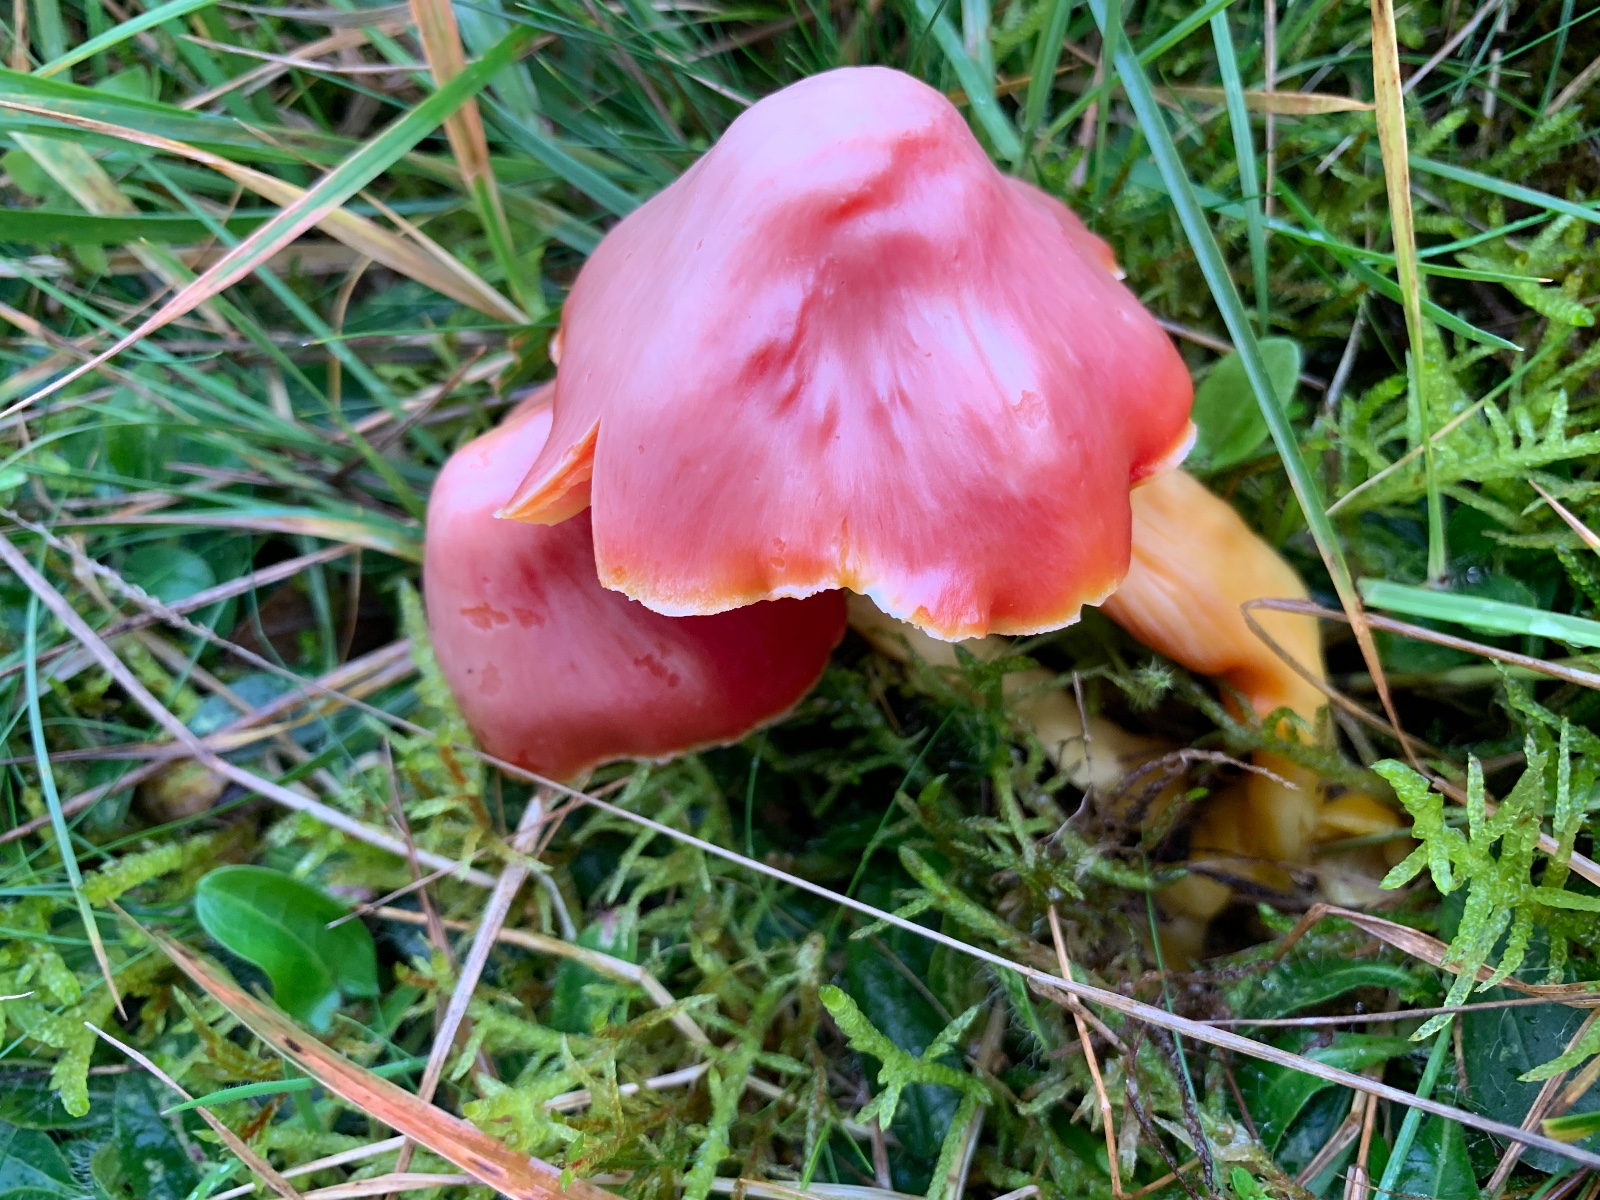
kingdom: Fungi
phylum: Basidiomycota
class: Agaricomycetes
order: Agaricales
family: Hygrophoraceae
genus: Hygrocybe
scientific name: Hygrocybe splendidissima
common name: knaldrød vokshat
